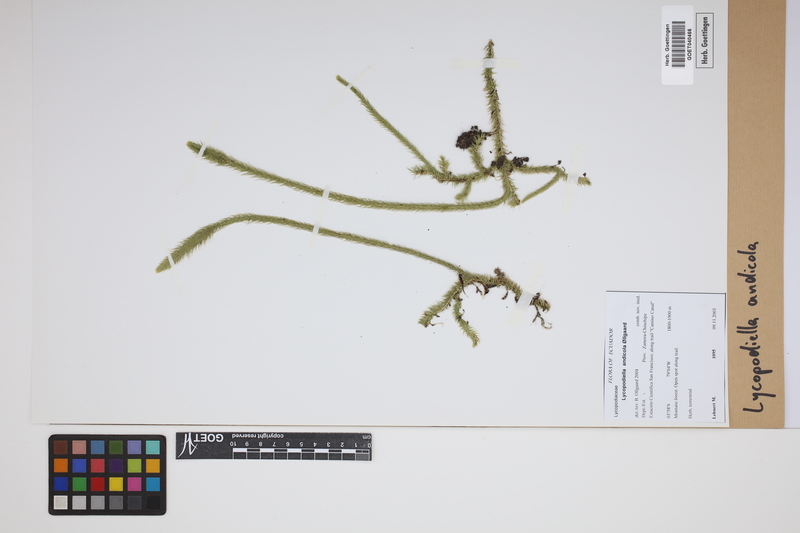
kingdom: Plantae
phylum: Tracheophyta
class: Lycopodiopsida
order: Lycopodiales
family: Lycopodiaceae
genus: Lycopodiella
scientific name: Lycopodiella andicola
